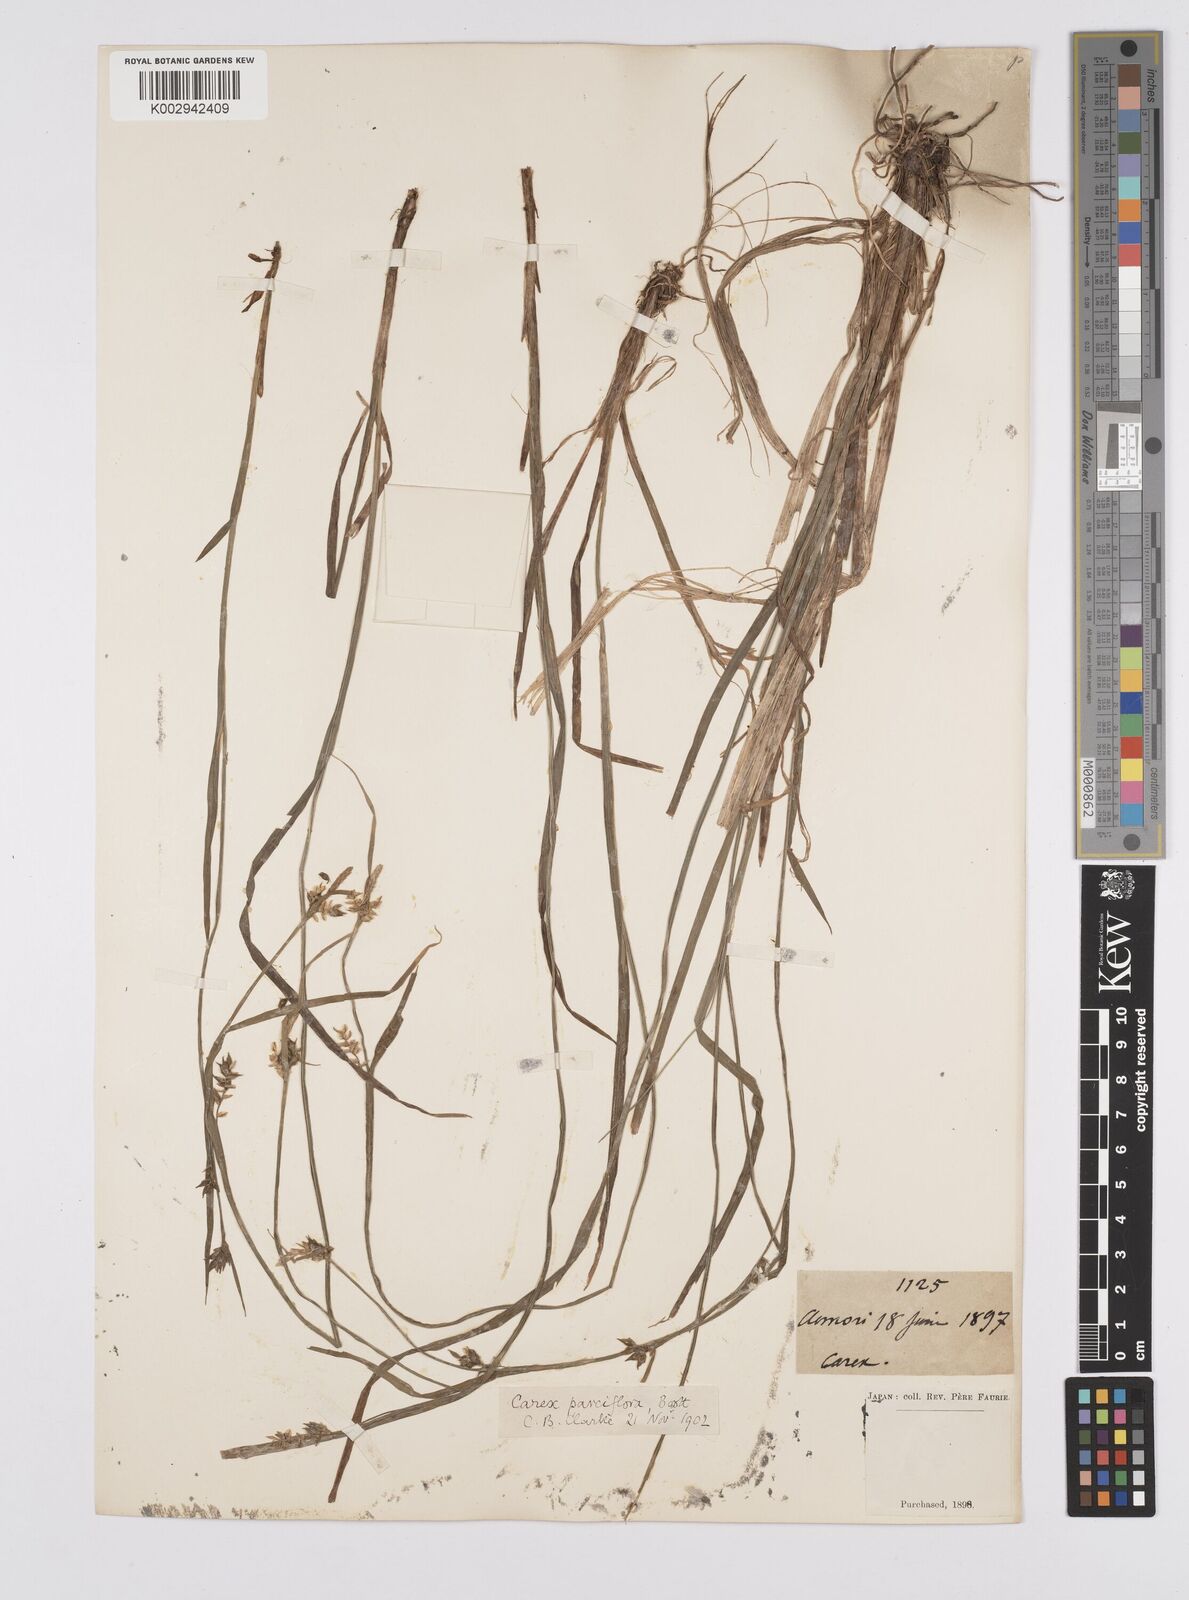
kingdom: Plantae
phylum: Tracheophyta
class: Liliopsida
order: Poales
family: Cyperaceae
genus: Carex
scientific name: Carex parciflora
